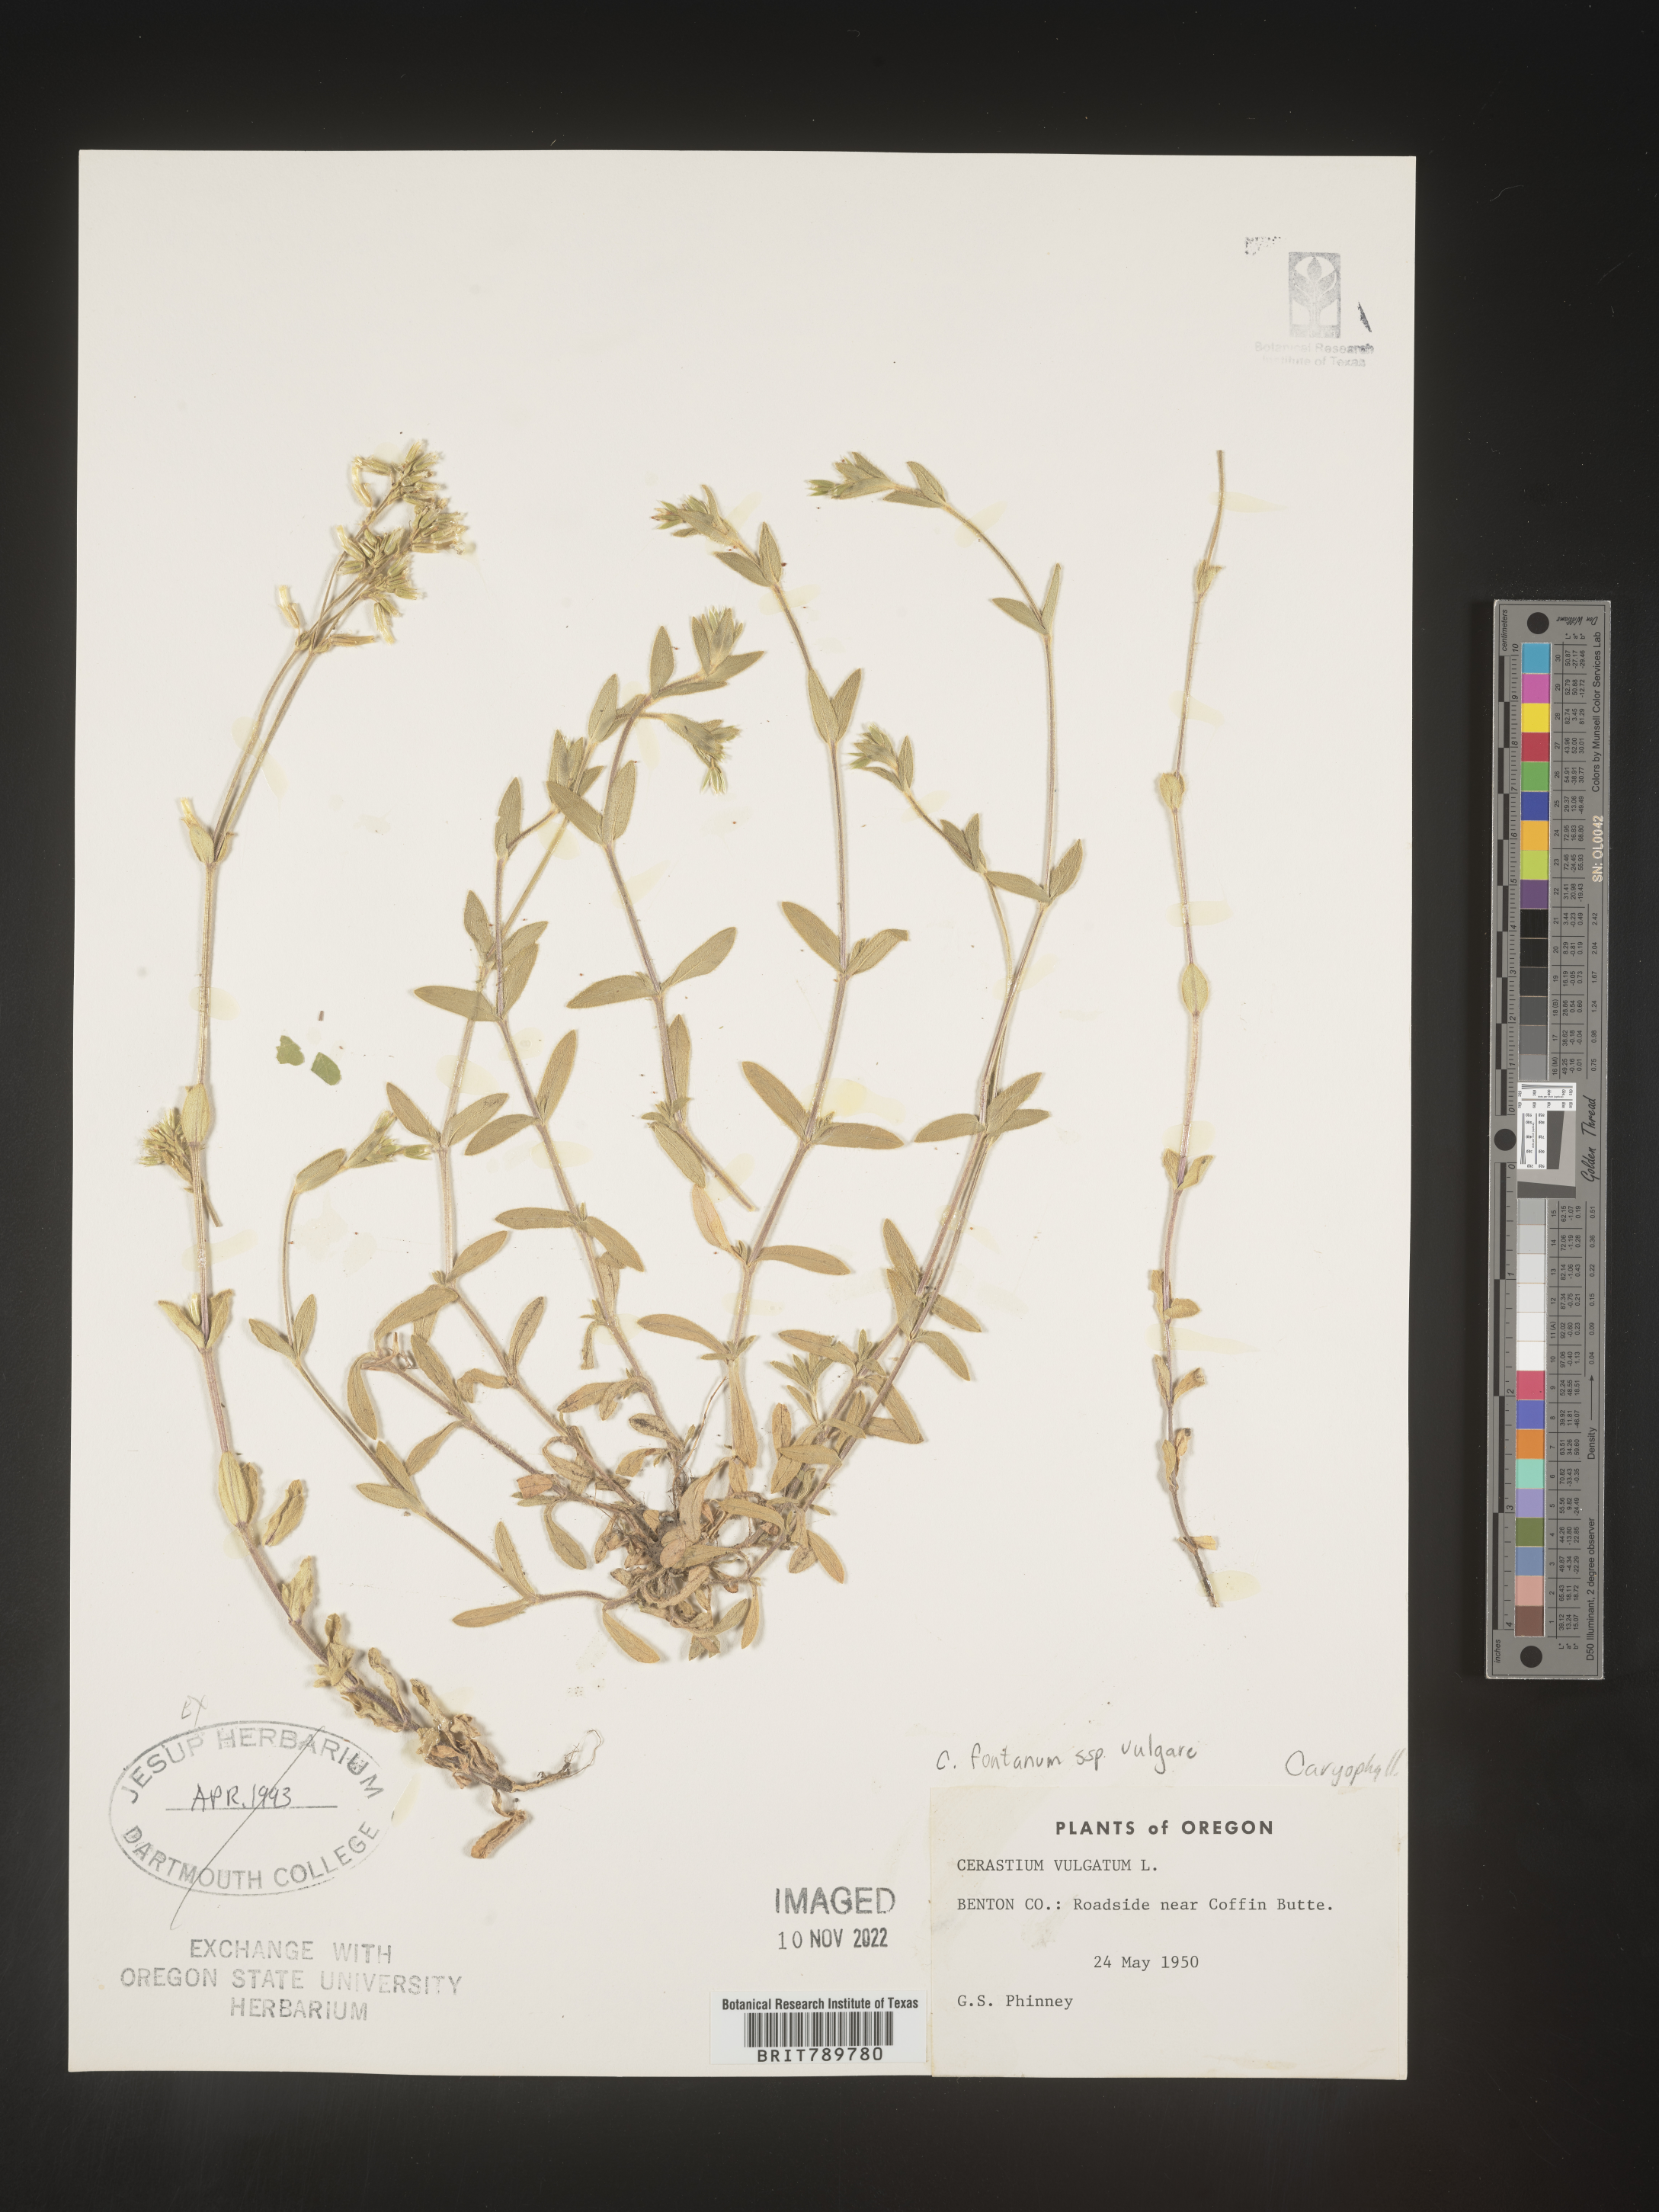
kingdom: Plantae
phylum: Tracheophyta
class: Magnoliopsida
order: Caryophyllales
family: Caryophyllaceae
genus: Cerastium
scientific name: Cerastium fontanum
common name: Common mouse-ear
